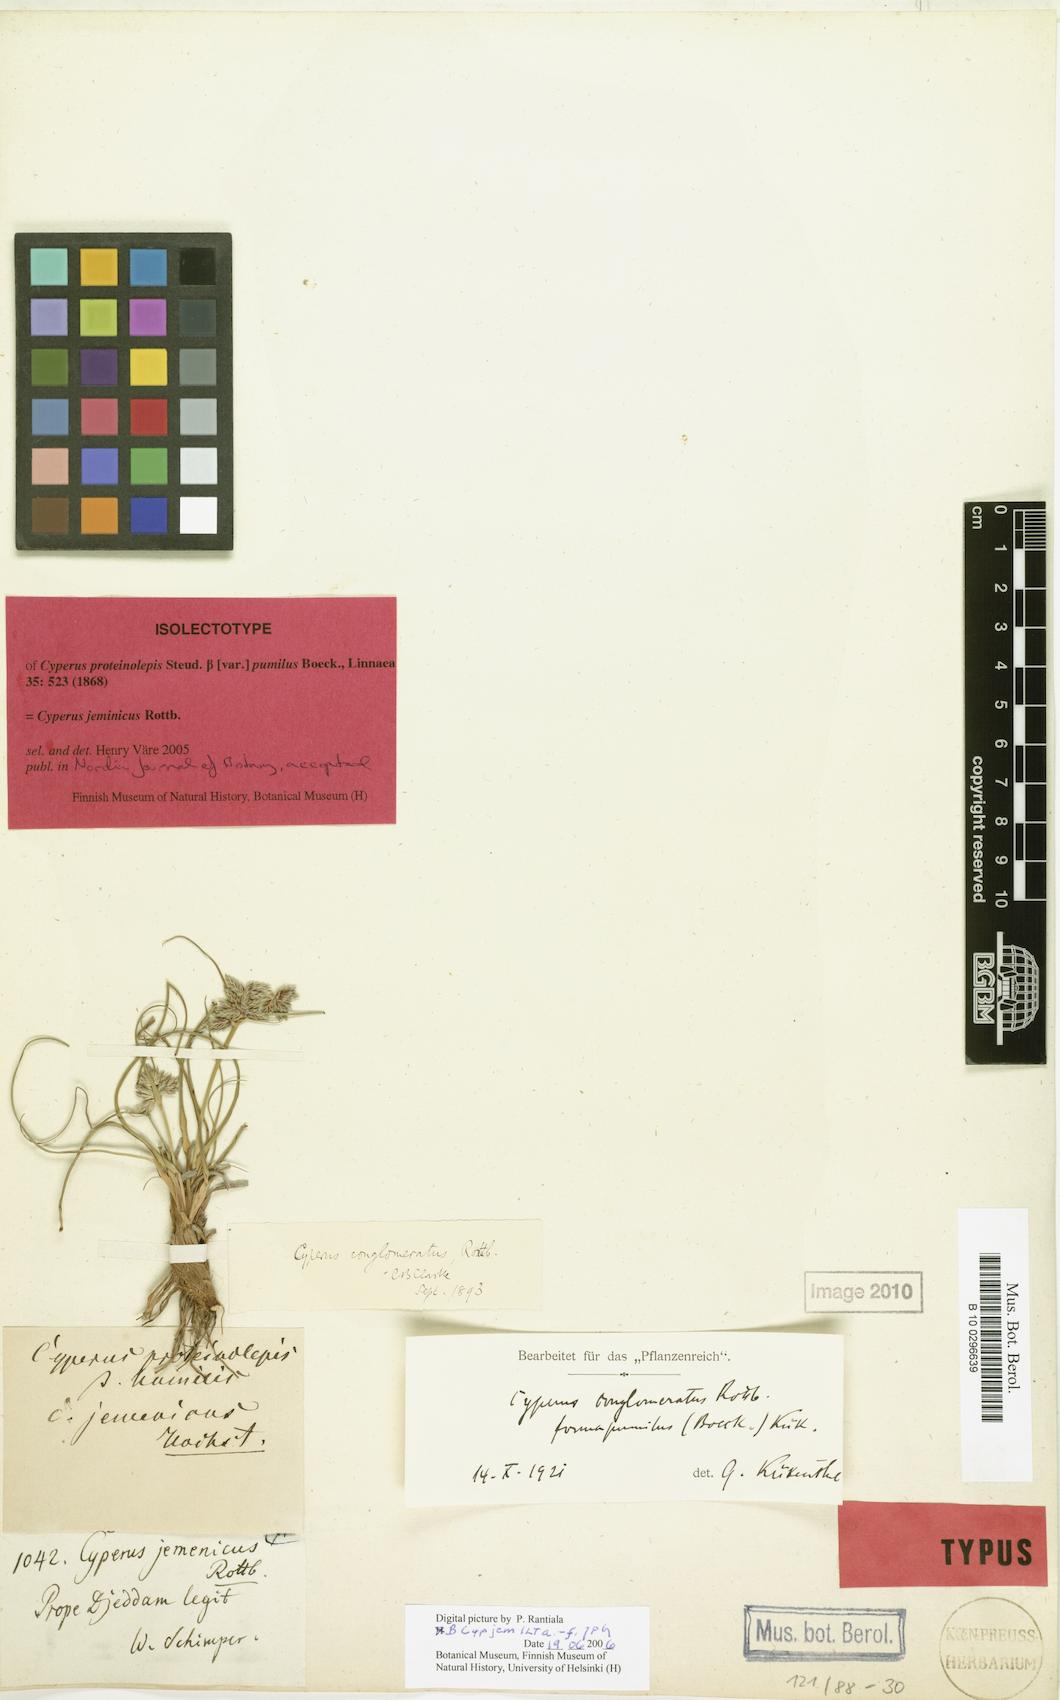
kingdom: Plantae
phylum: Tracheophyta
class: Liliopsida
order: Poales
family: Cyperaceae
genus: Cyperus
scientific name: Cyperus jeminicus
